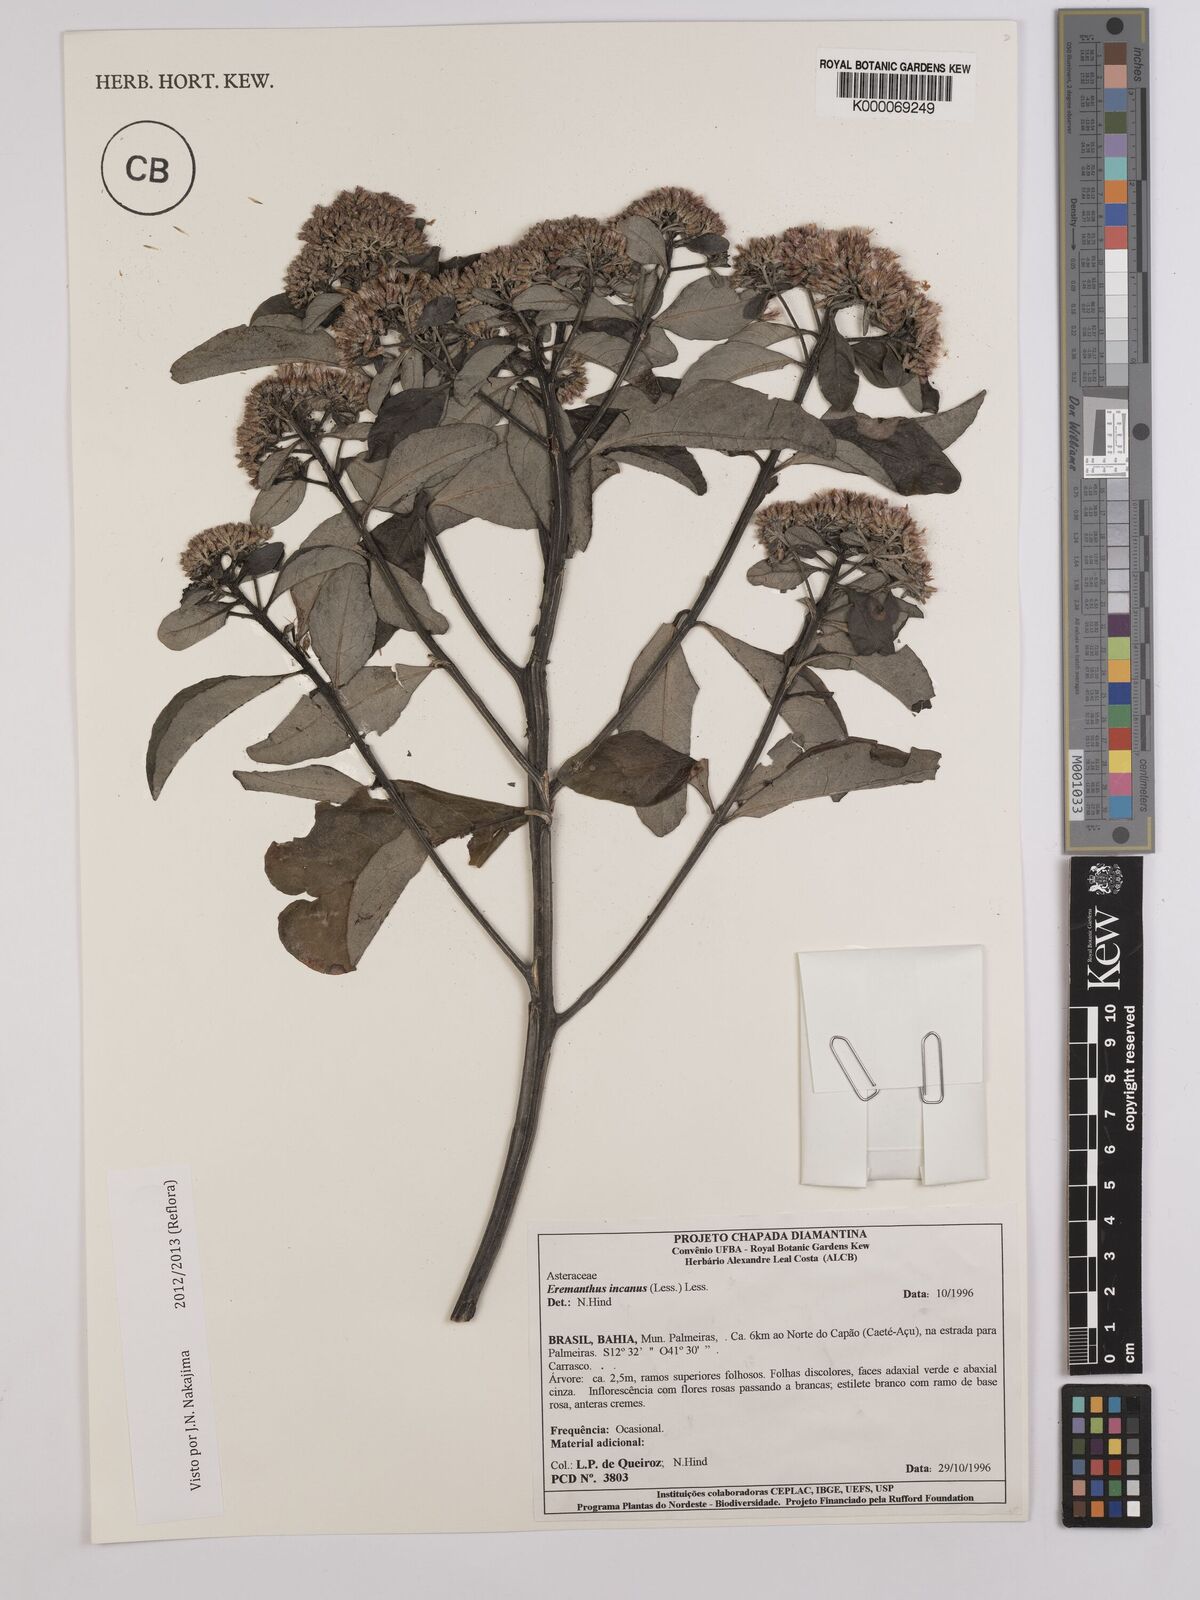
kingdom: Plantae
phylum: Tracheophyta
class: Magnoliopsida
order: Asterales
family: Asteraceae
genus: Eremanthus
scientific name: Eremanthus capitatus
